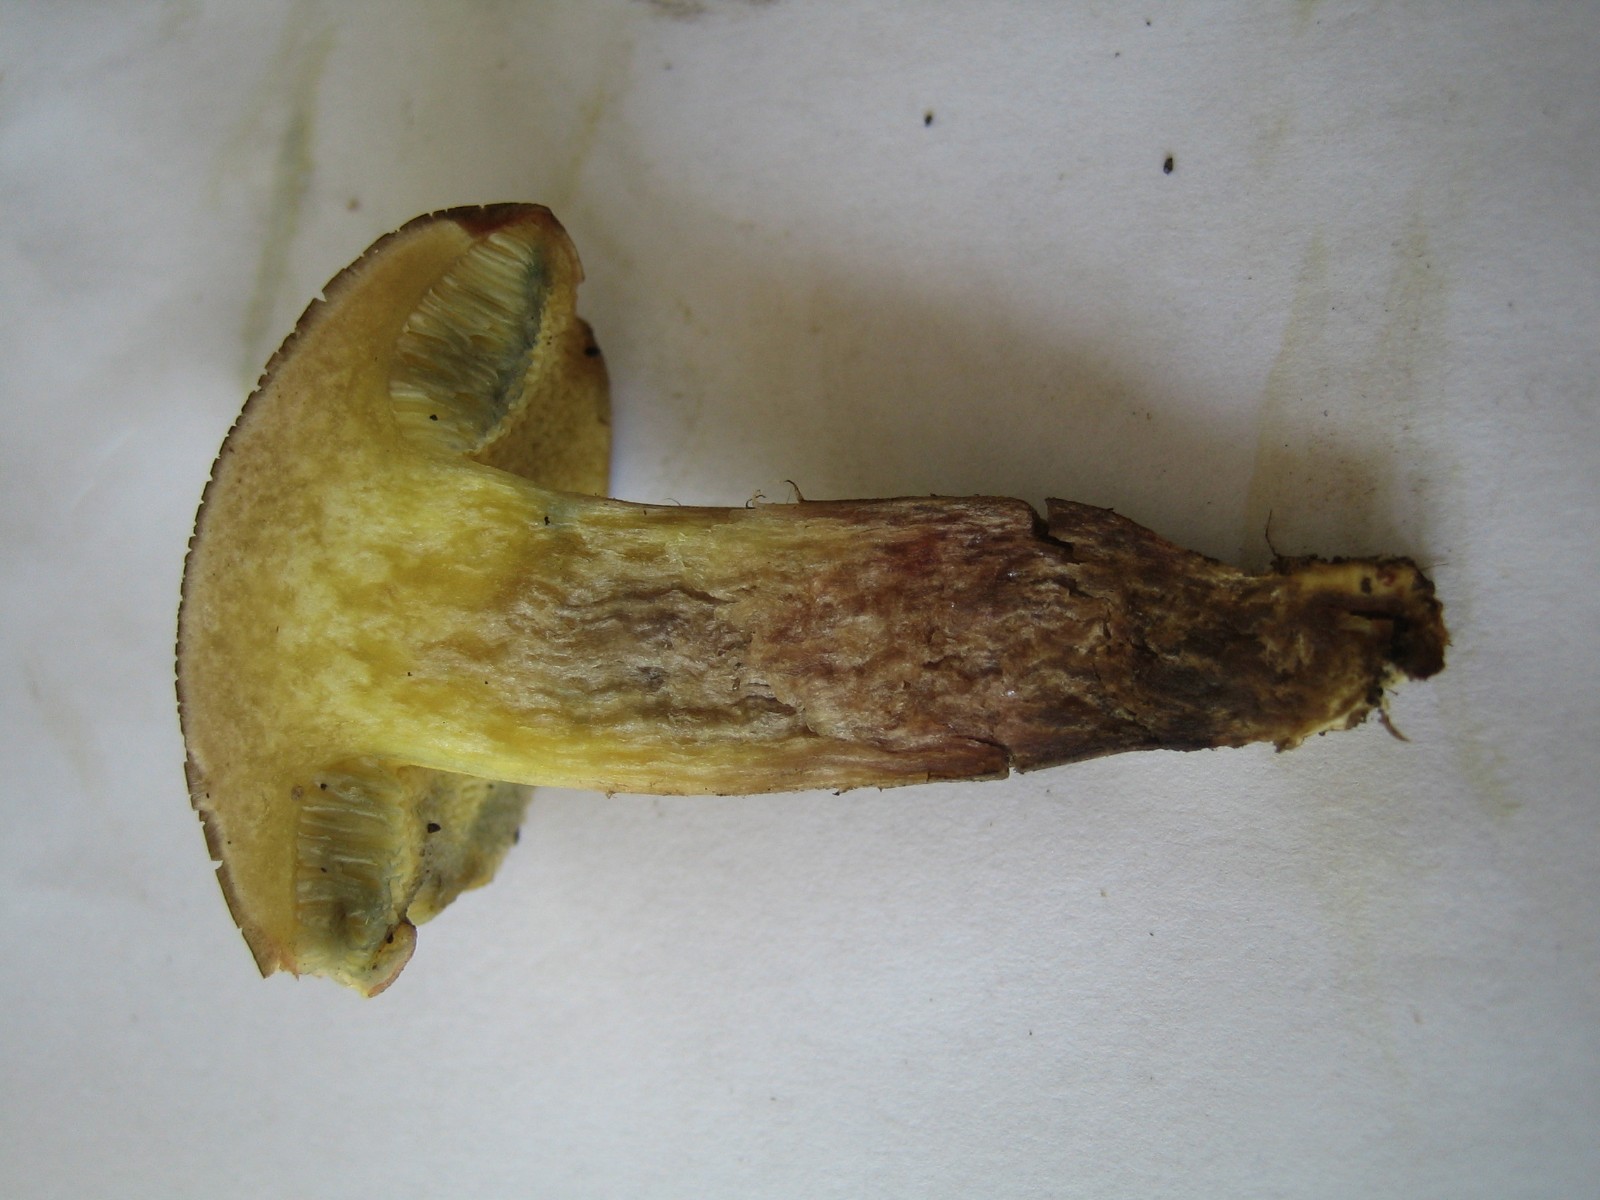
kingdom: Fungi
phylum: Basidiomycota
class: Agaricomycetes
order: Boletales
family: Boletaceae
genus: Xerocomellus
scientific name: Xerocomellus porosporus
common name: hvidsprukken rørhat
